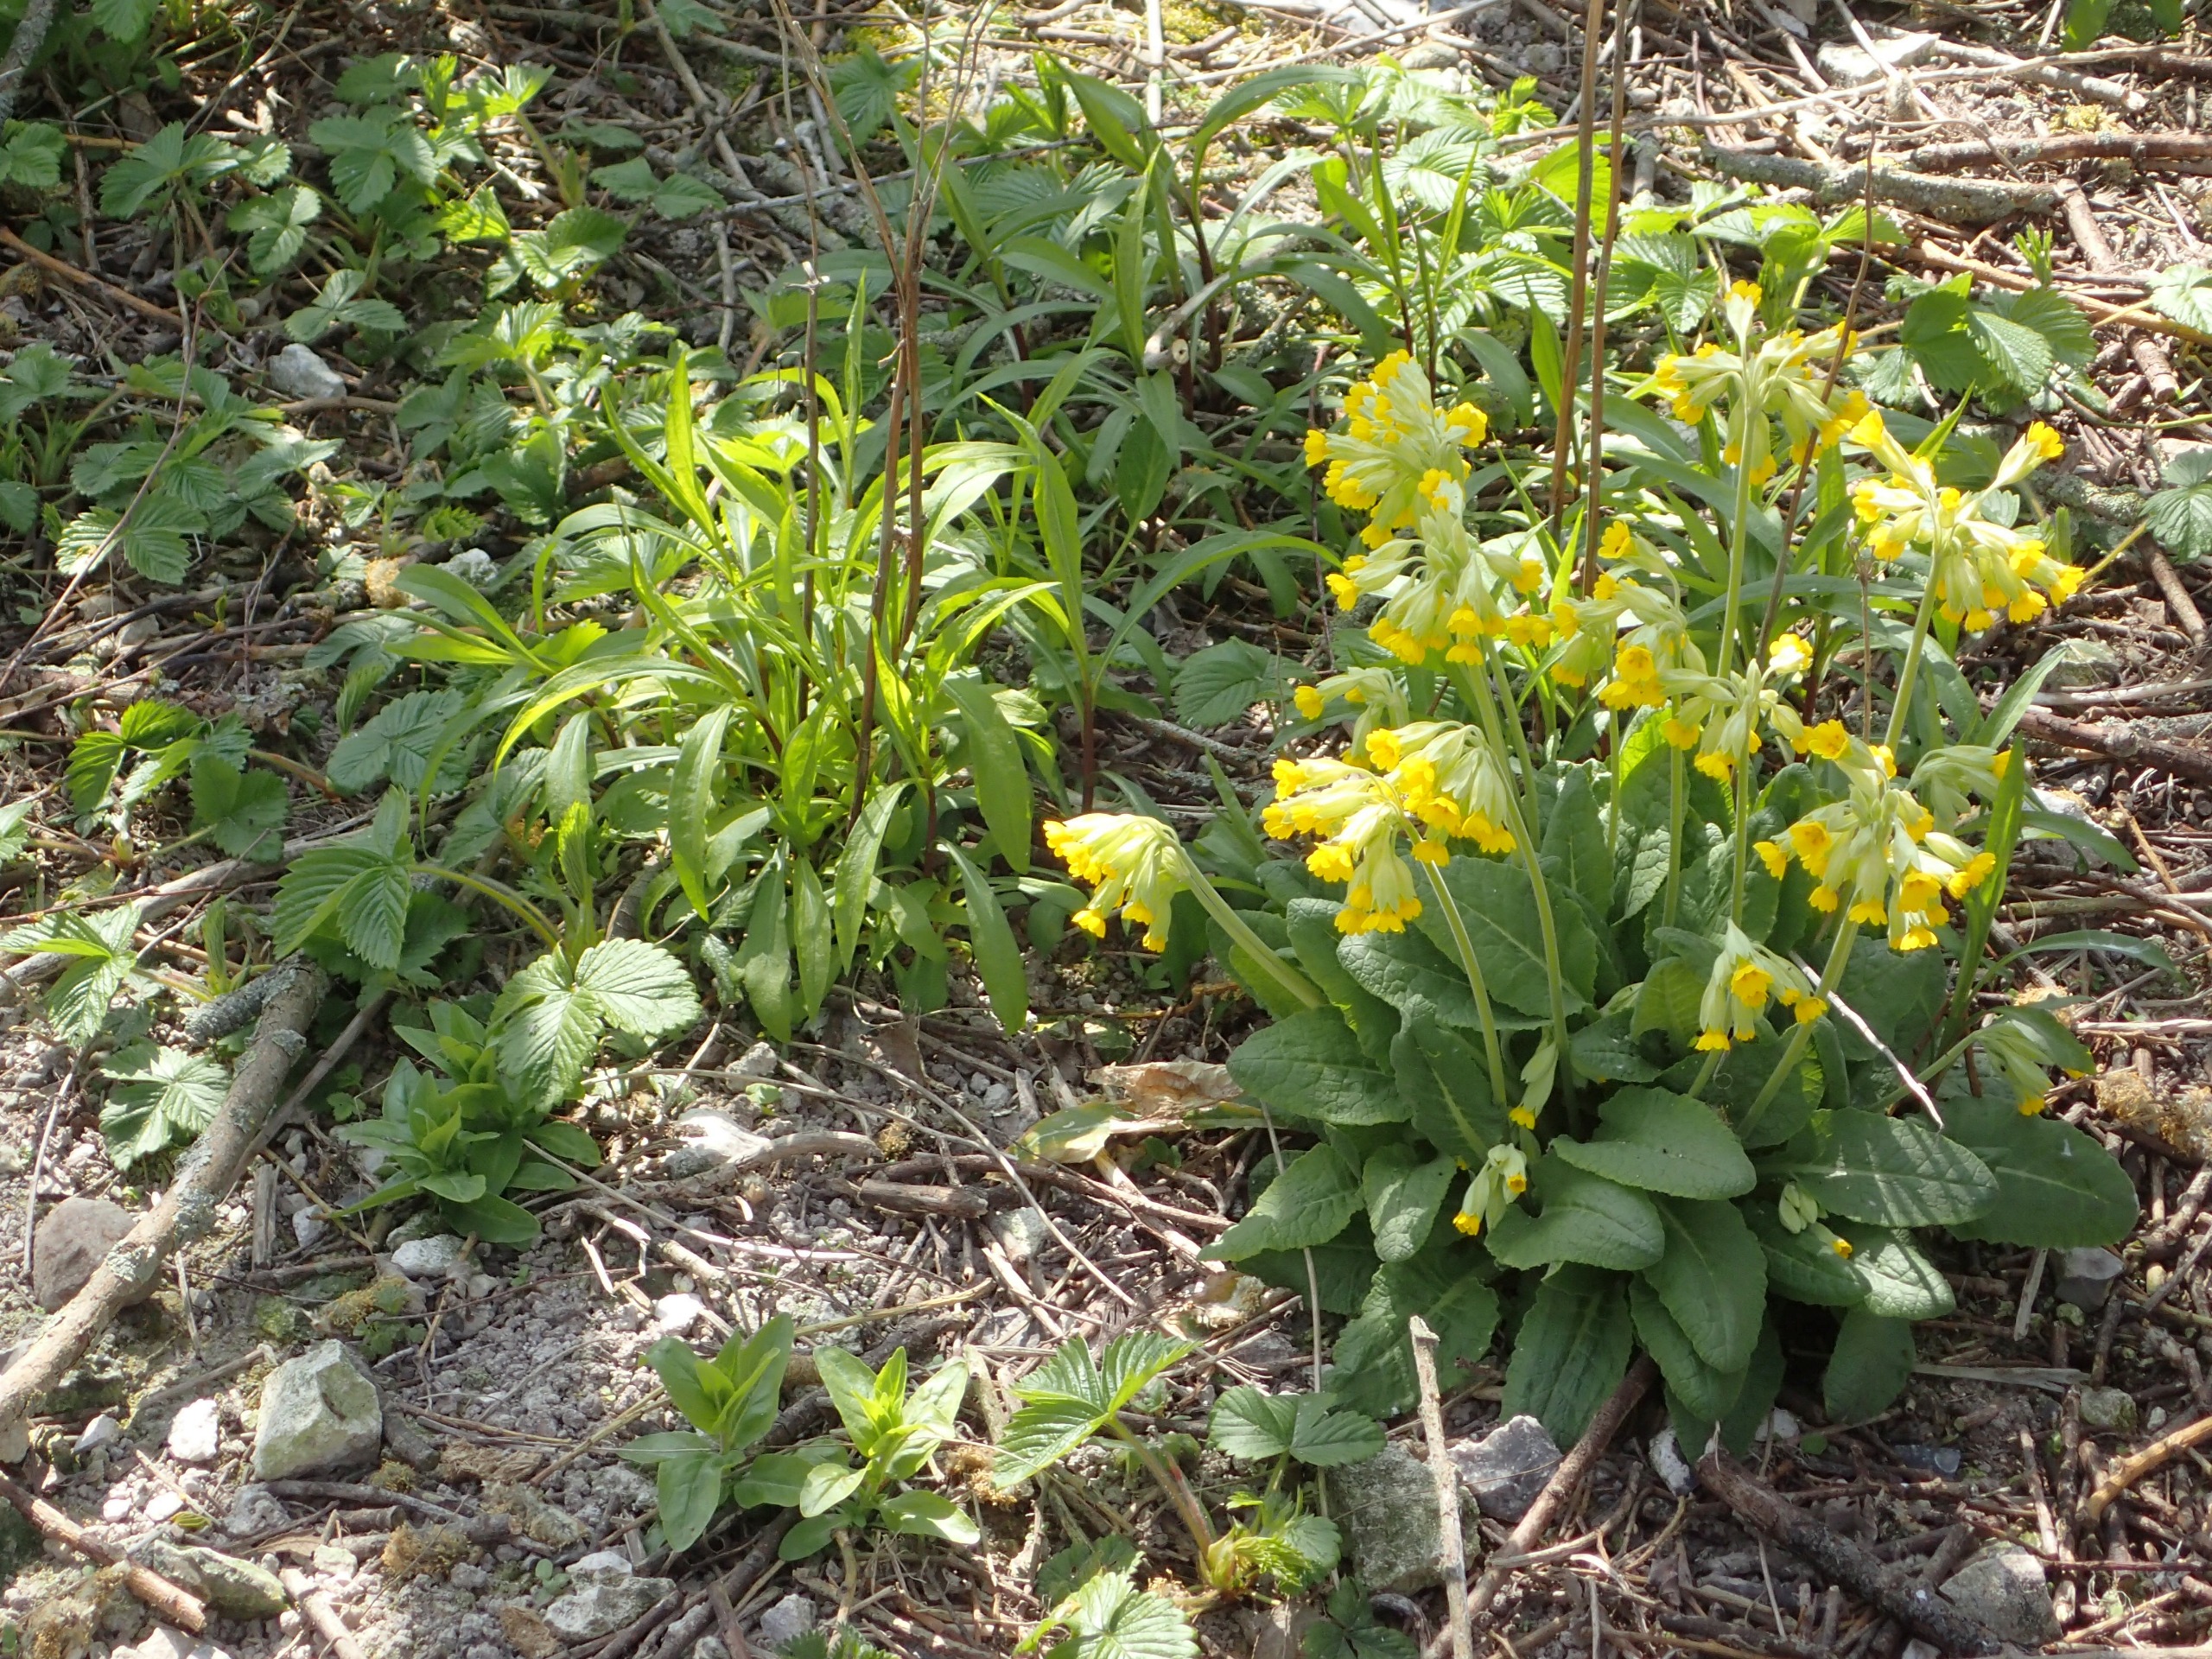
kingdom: Plantae
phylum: Tracheophyta
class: Magnoliopsida
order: Ericales
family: Primulaceae
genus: Primula
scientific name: Primula veris
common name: Hulkravet kodriver
